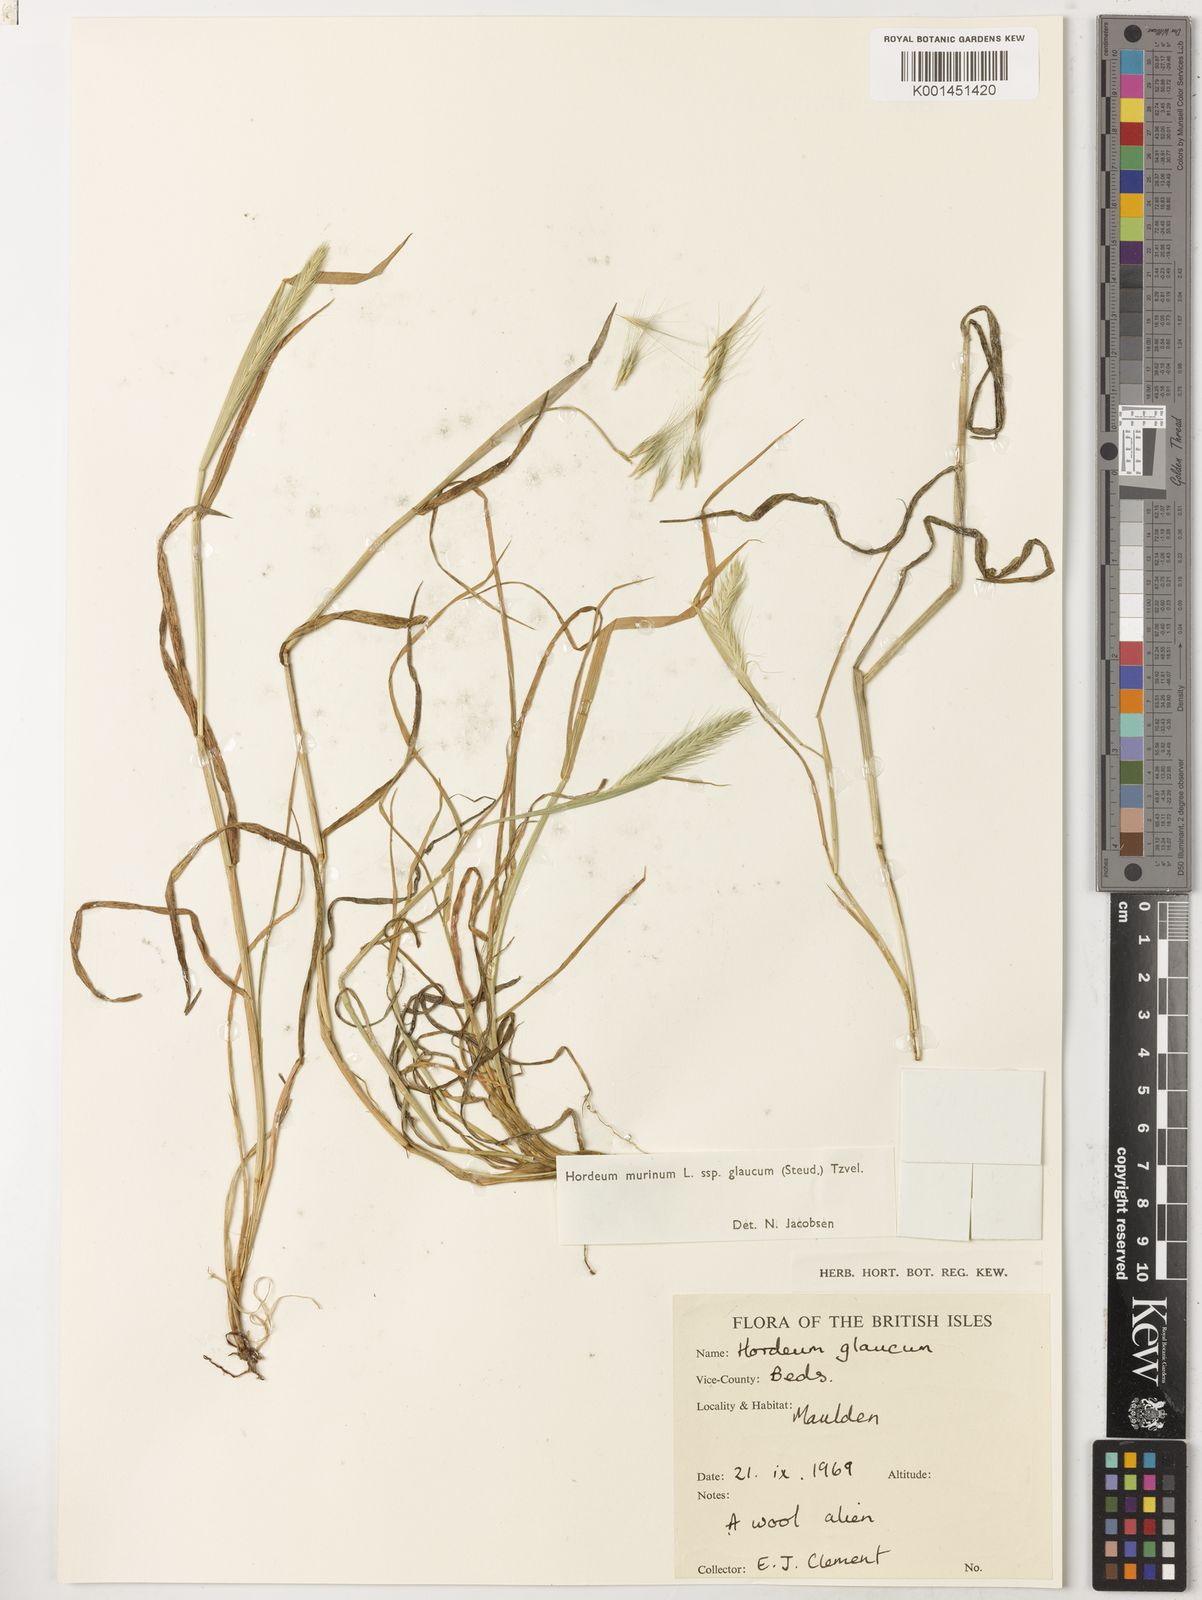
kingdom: Plantae
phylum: Tracheophyta
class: Liliopsida
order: Poales
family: Poaceae
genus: Hordeum
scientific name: Hordeum murinum
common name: Wall barley
